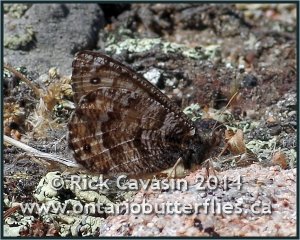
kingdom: Animalia
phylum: Arthropoda
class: Insecta
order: Lepidoptera
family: Nymphalidae
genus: Oeneis
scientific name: Oeneis chryxus
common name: Chryxus Arctic
